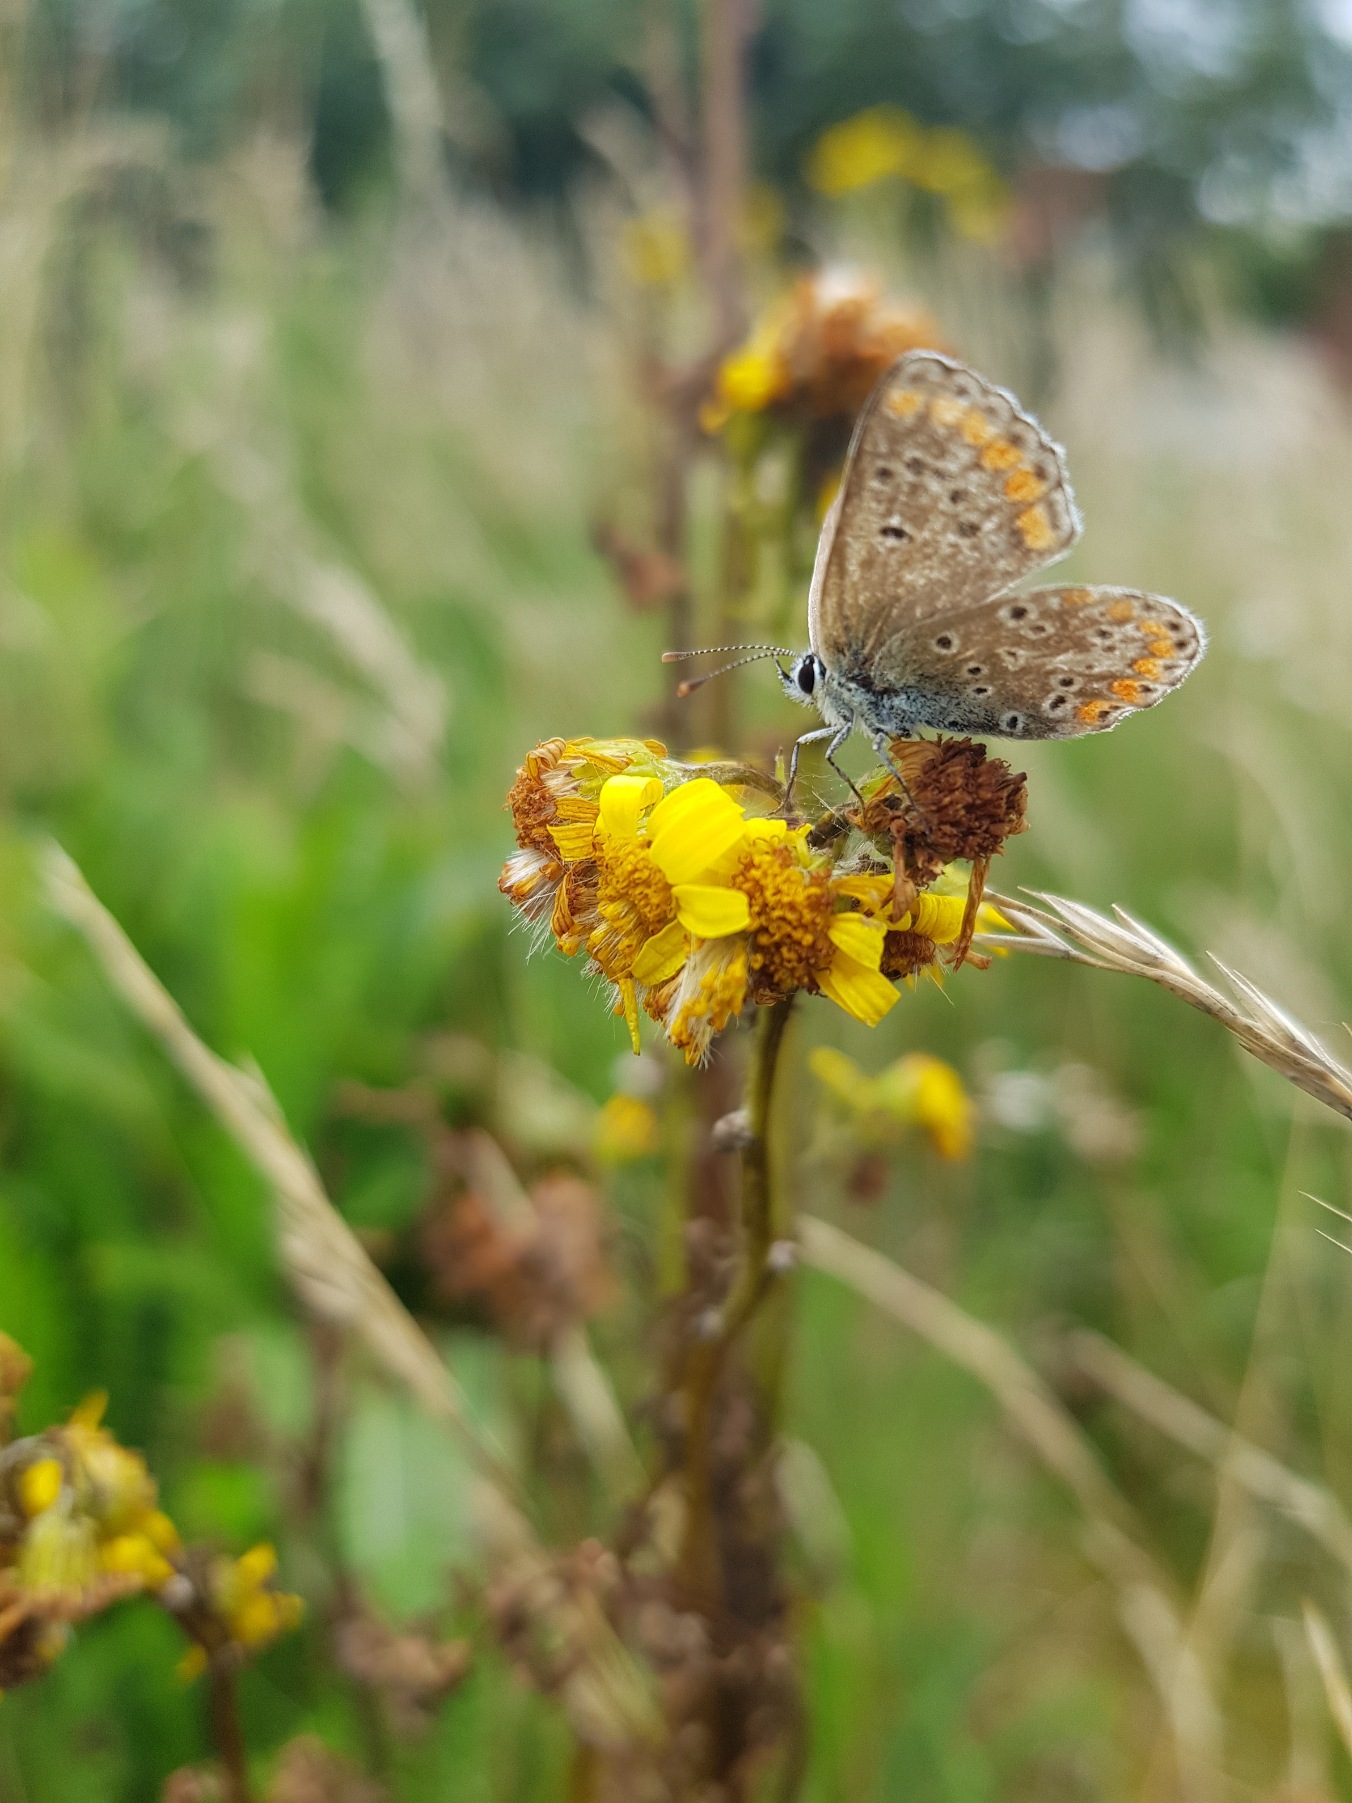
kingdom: Animalia
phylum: Arthropoda
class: Insecta
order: Lepidoptera
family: Lycaenidae
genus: Aricia
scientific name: Aricia agestis
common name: Rødplettet blåfugl
